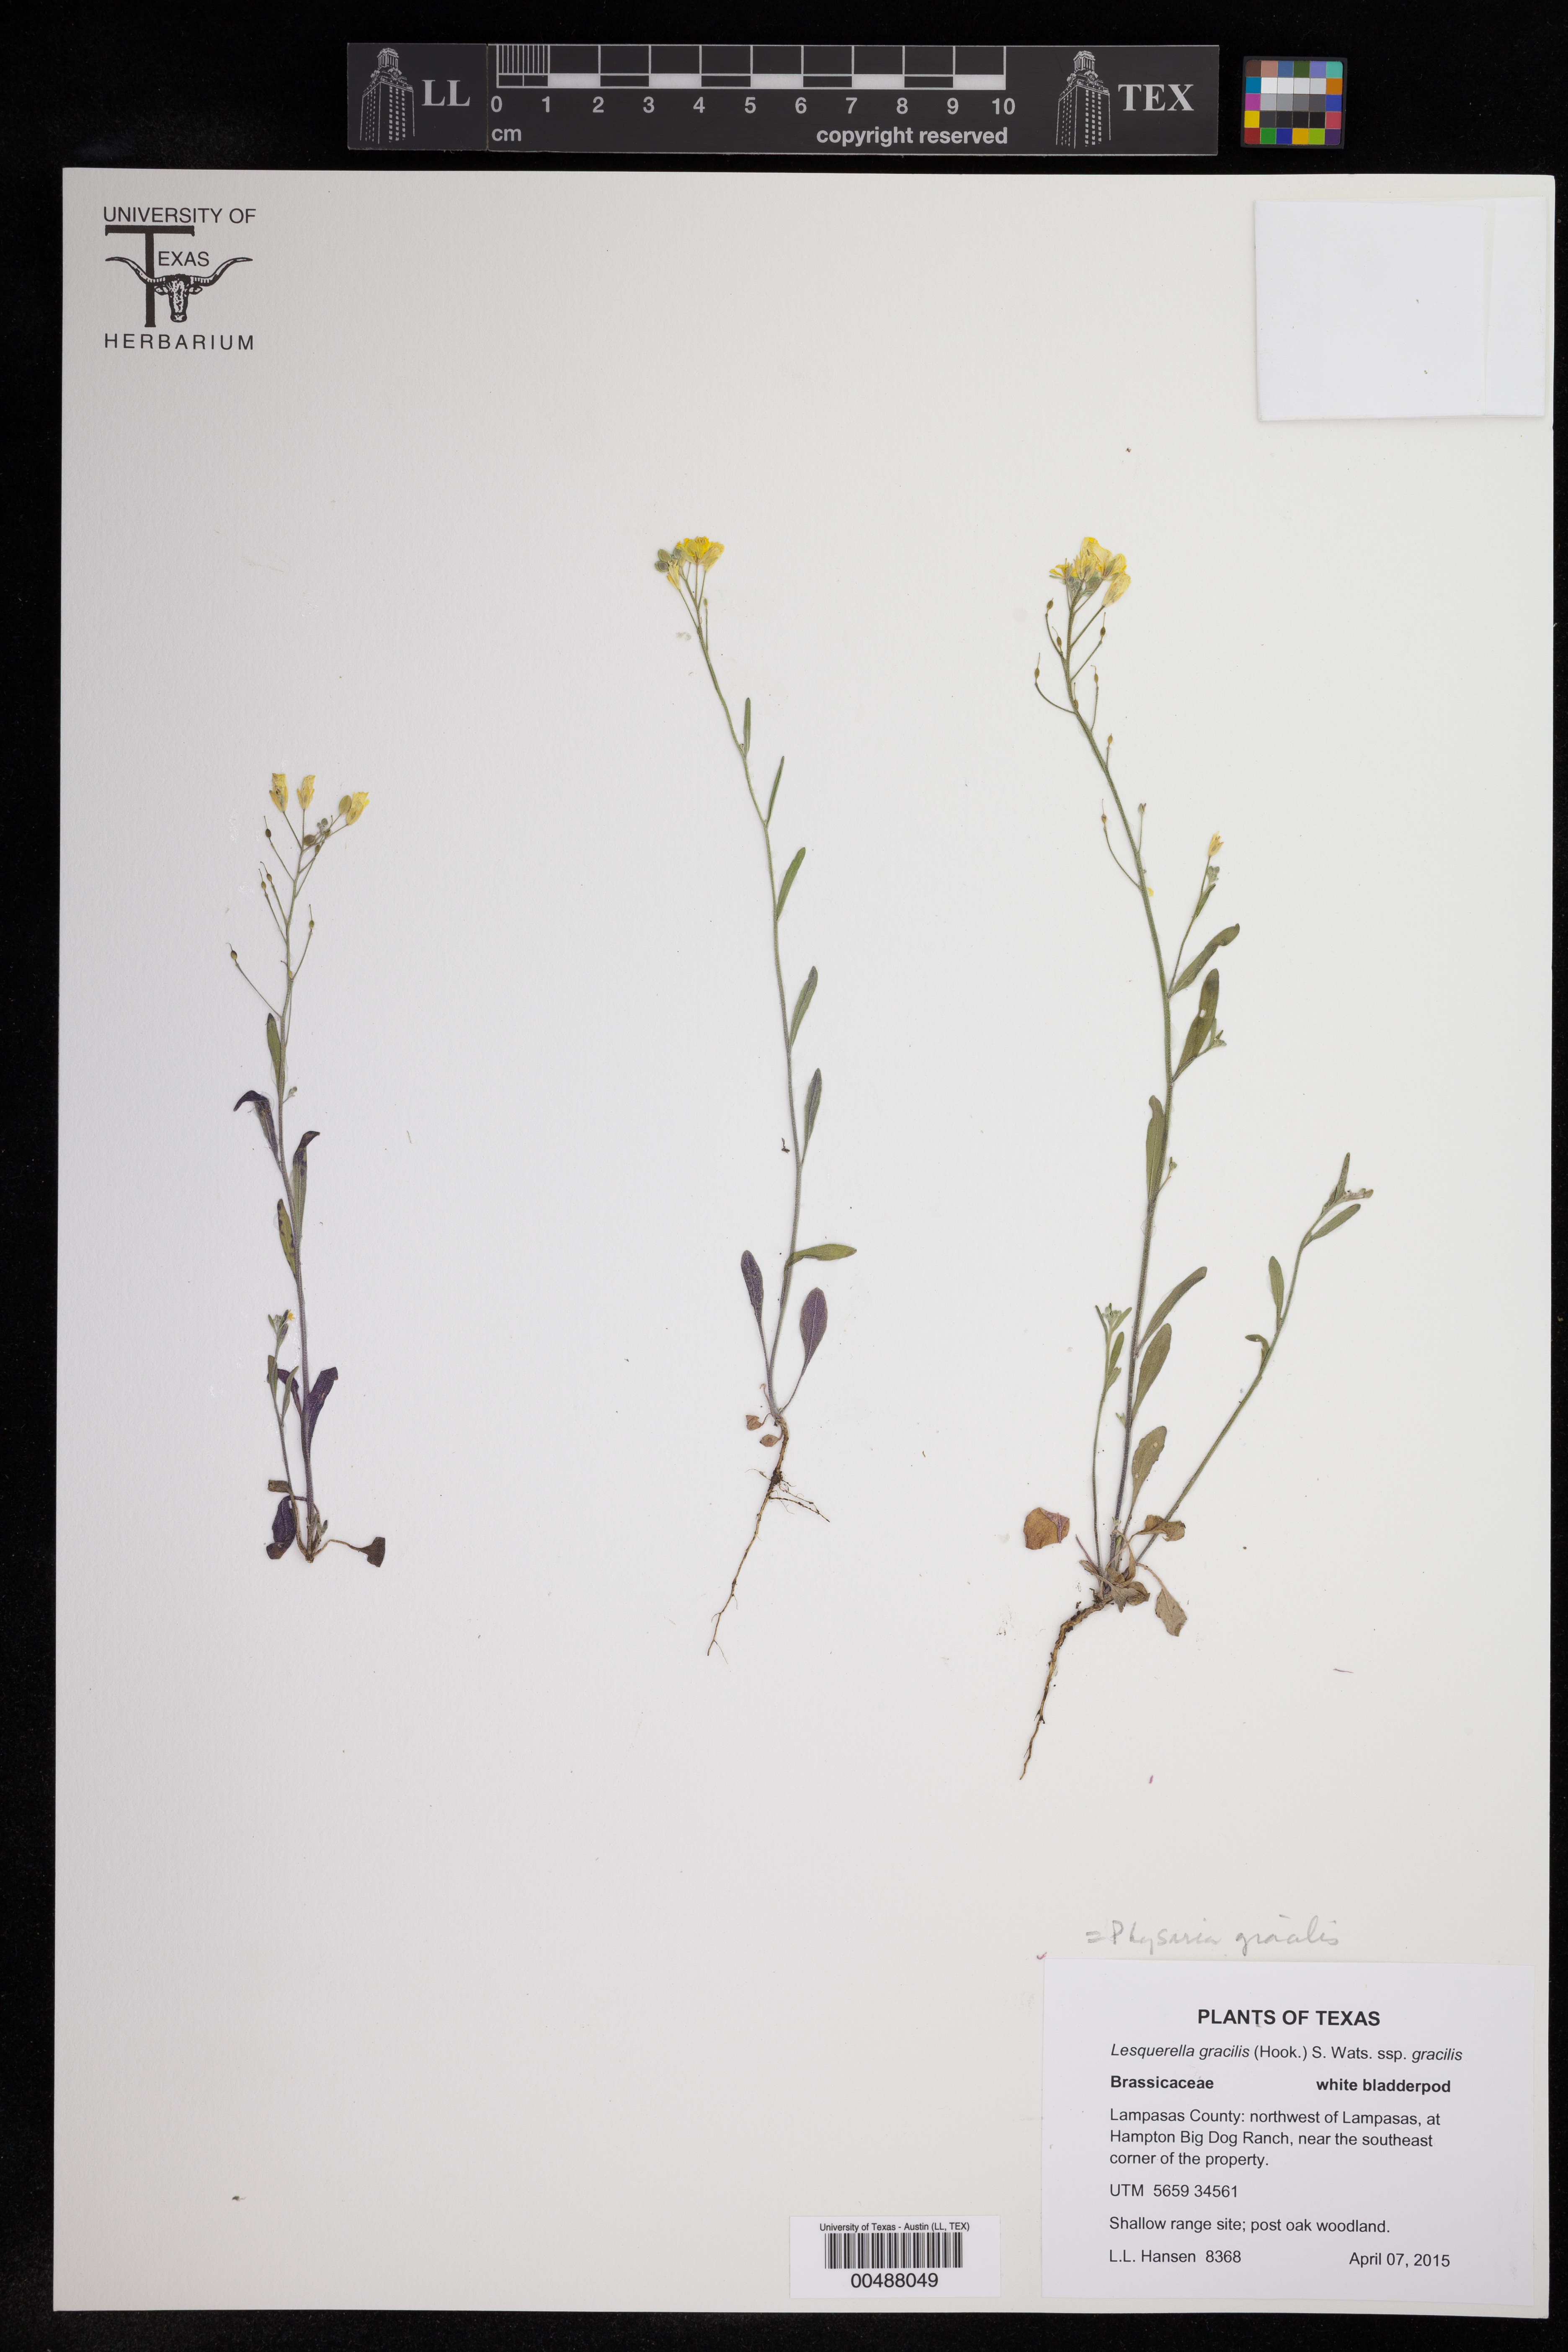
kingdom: Plantae
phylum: Tracheophyta
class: Magnoliopsida
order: Brassicales
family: Brassicaceae
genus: Physaria
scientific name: Physaria gracilis
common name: Spreading bladderpod
